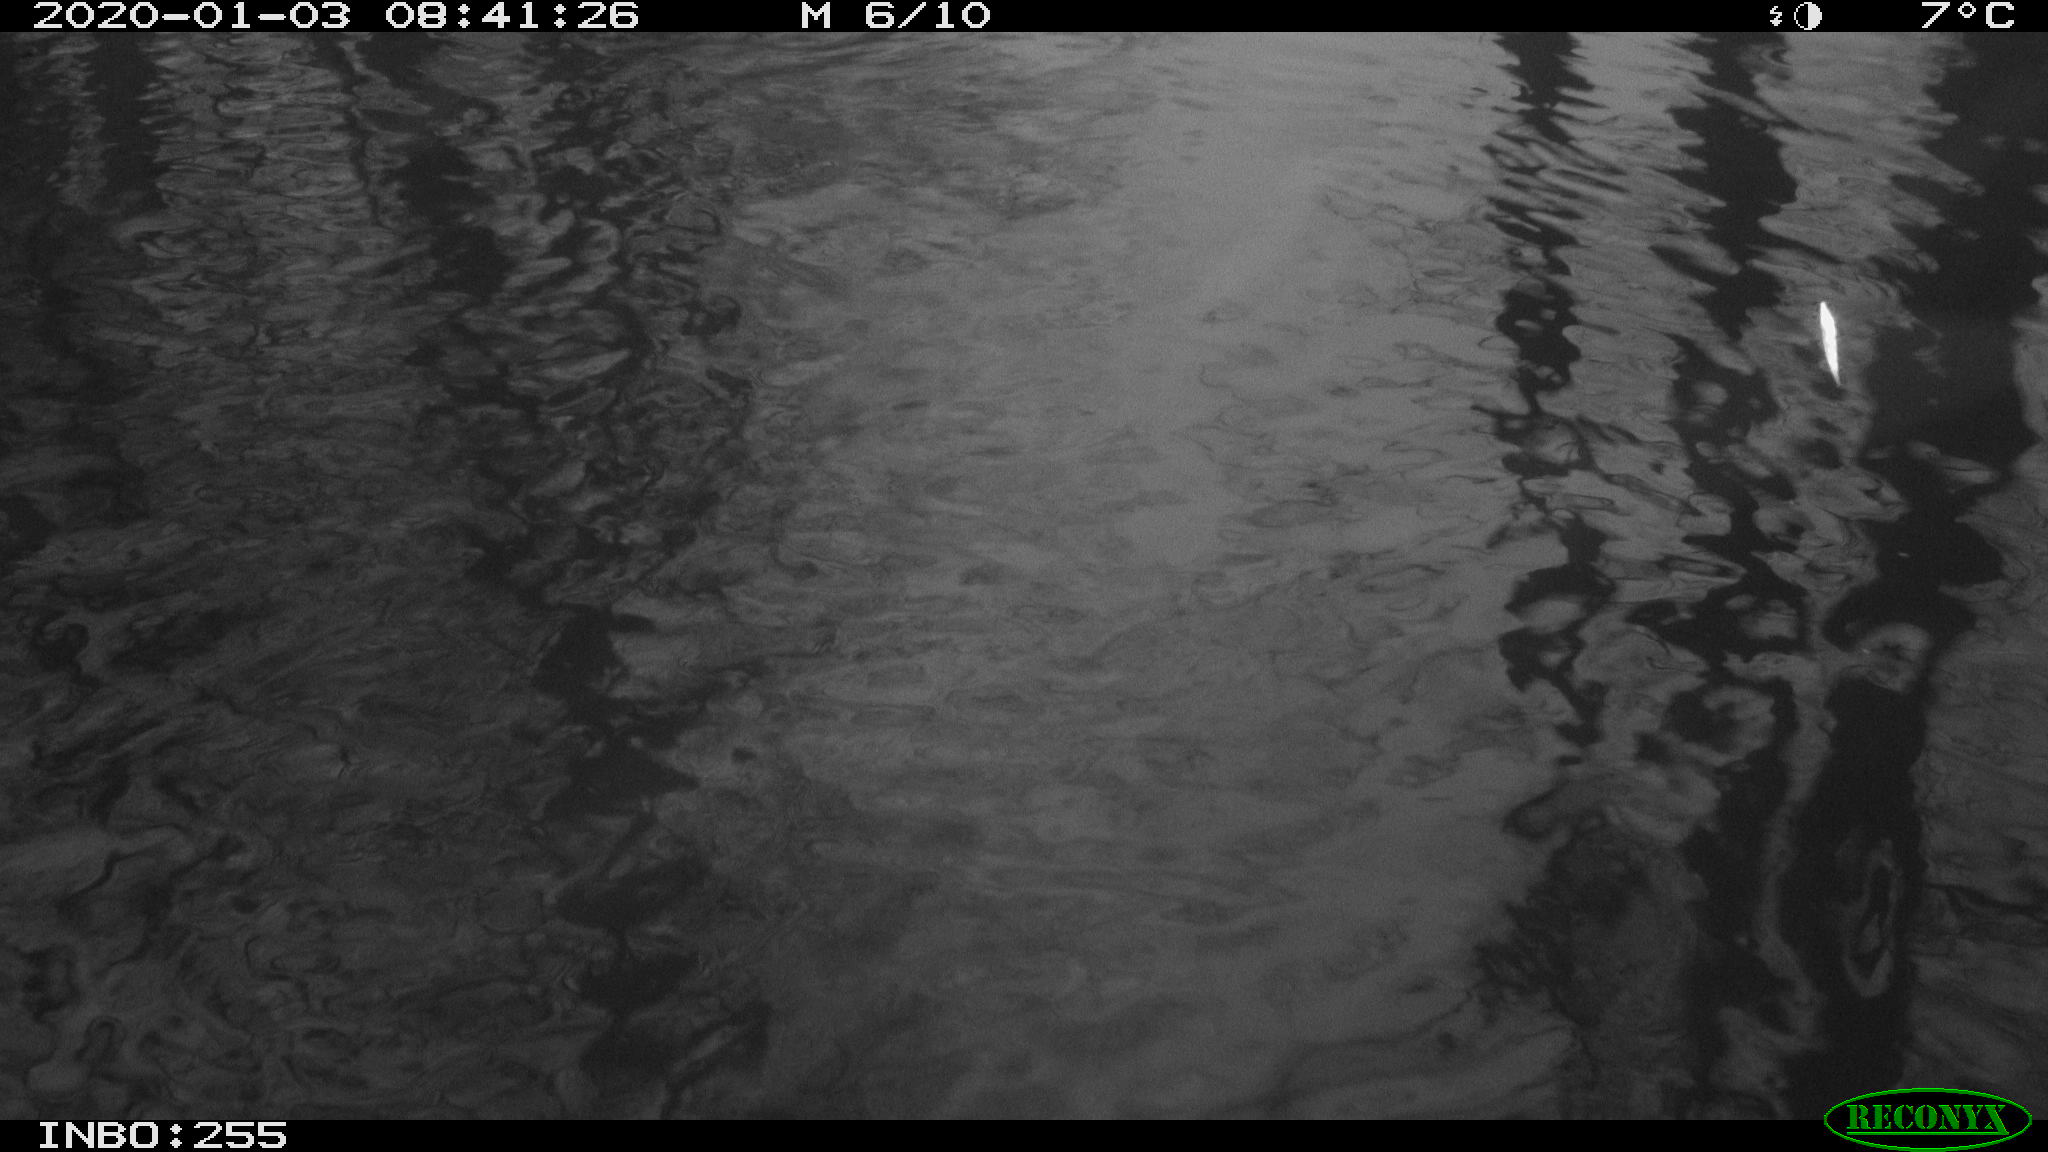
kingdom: Animalia
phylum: Chordata
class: Aves
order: Gruiformes
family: Rallidae
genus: Gallinula
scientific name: Gallinula chloropus
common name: Common moorhen
